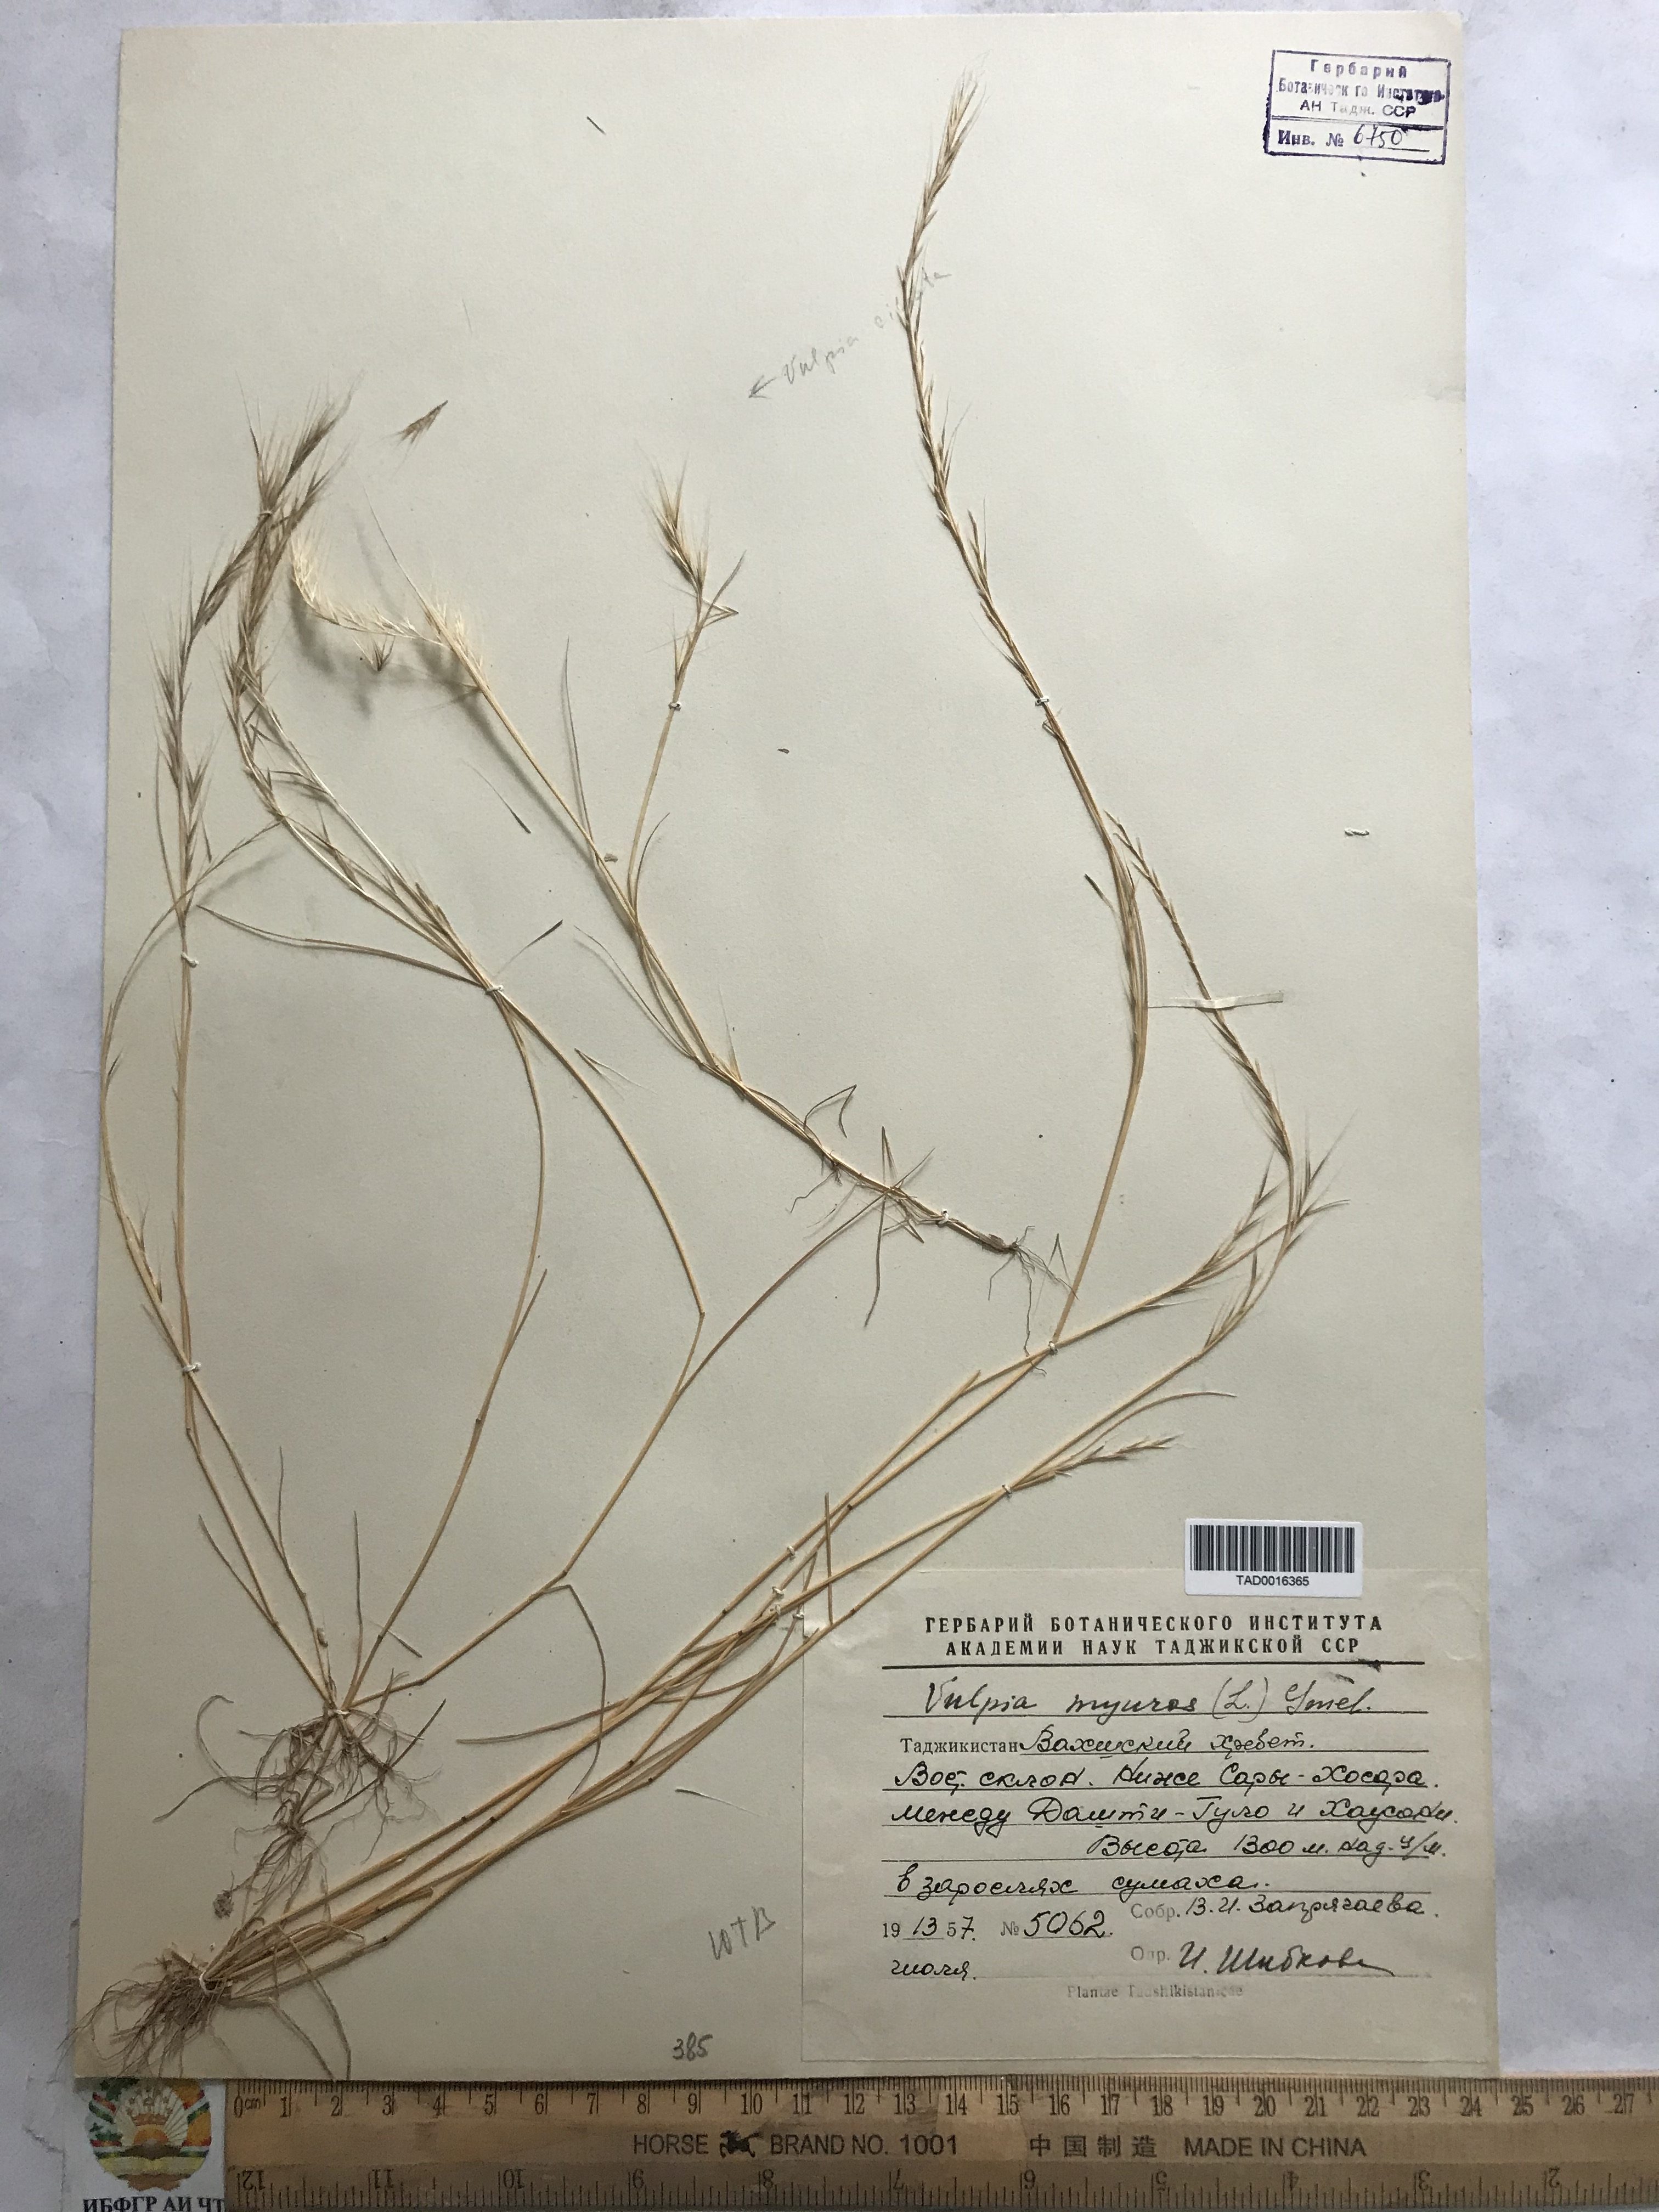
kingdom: Plantae
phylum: Tracheophyta
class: Liliopsida
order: Poales
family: Poaceae
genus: Festuca
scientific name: Festuca myuros
